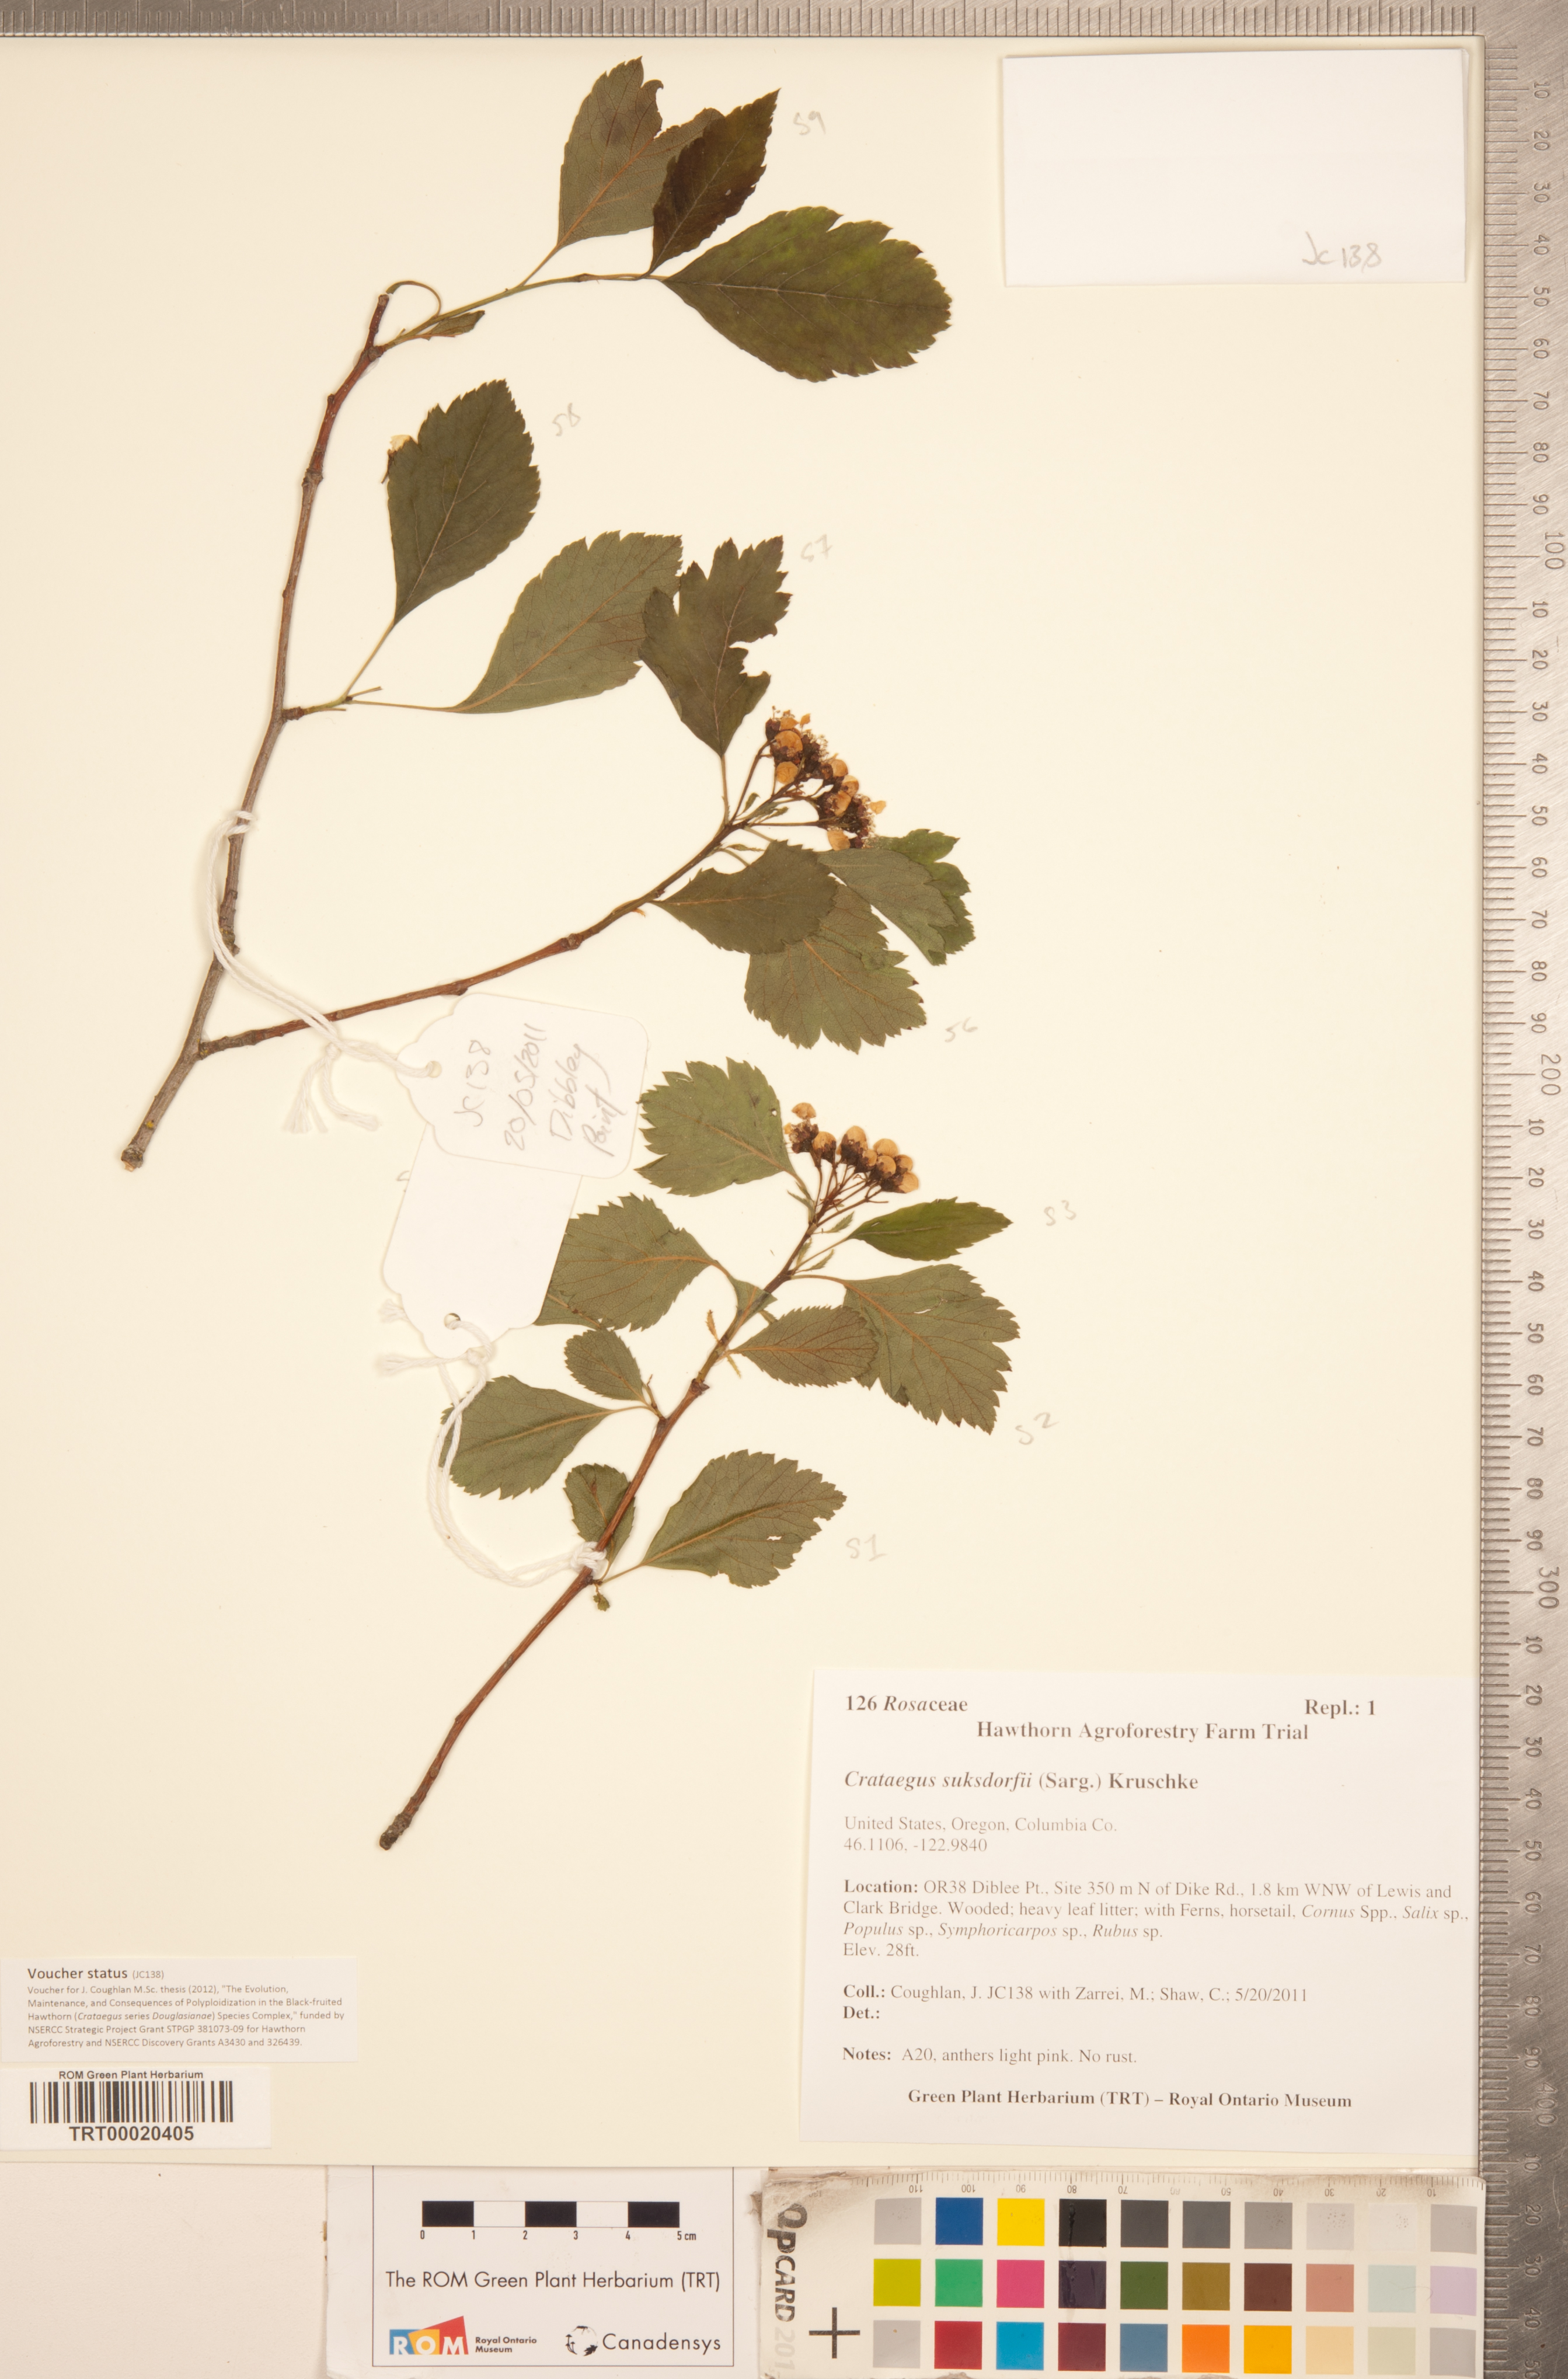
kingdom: Plantae
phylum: Tracheophyta
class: Magnoliopsida
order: Rosales
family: Rosaceae
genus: Crataegus
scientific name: Crataegus gaylussacia
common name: Huckleberry hawthorn
